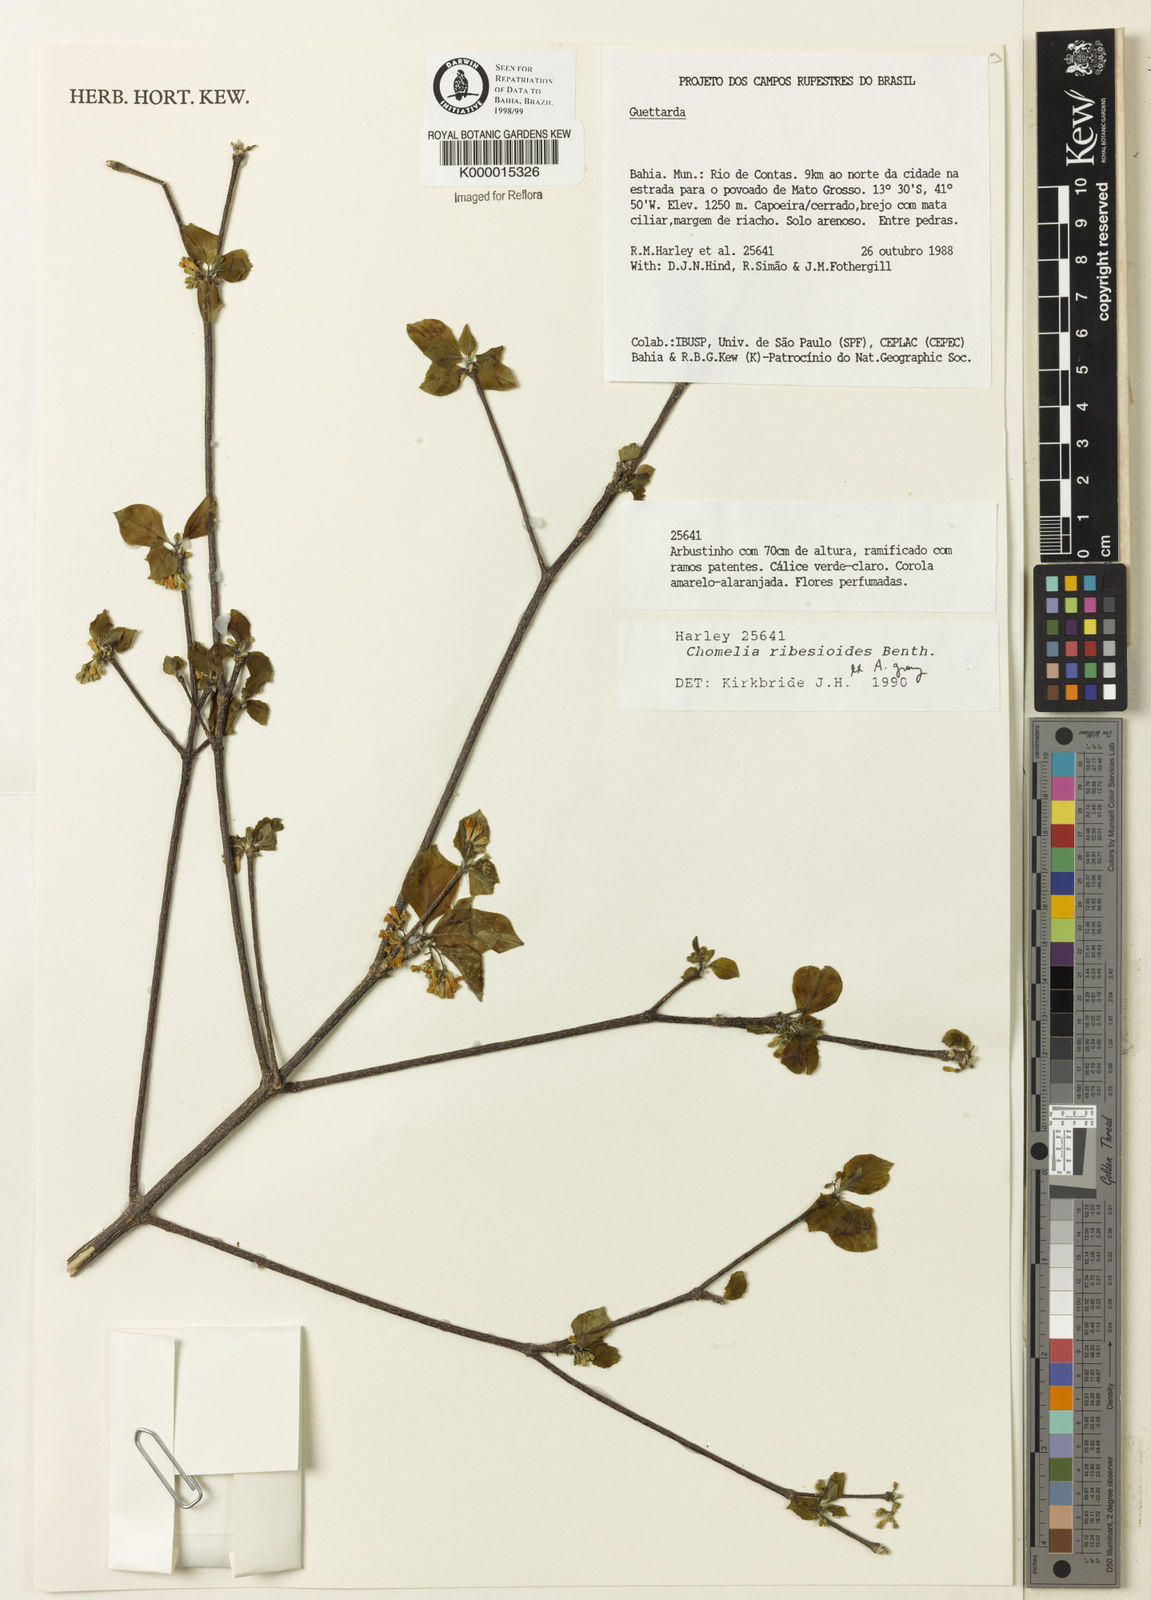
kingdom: Plantae
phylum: Tracheophyta
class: Magnoliopsida
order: Gentianales
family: Rubiaceae
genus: Chomelia
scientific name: Chomelia ribesioides
